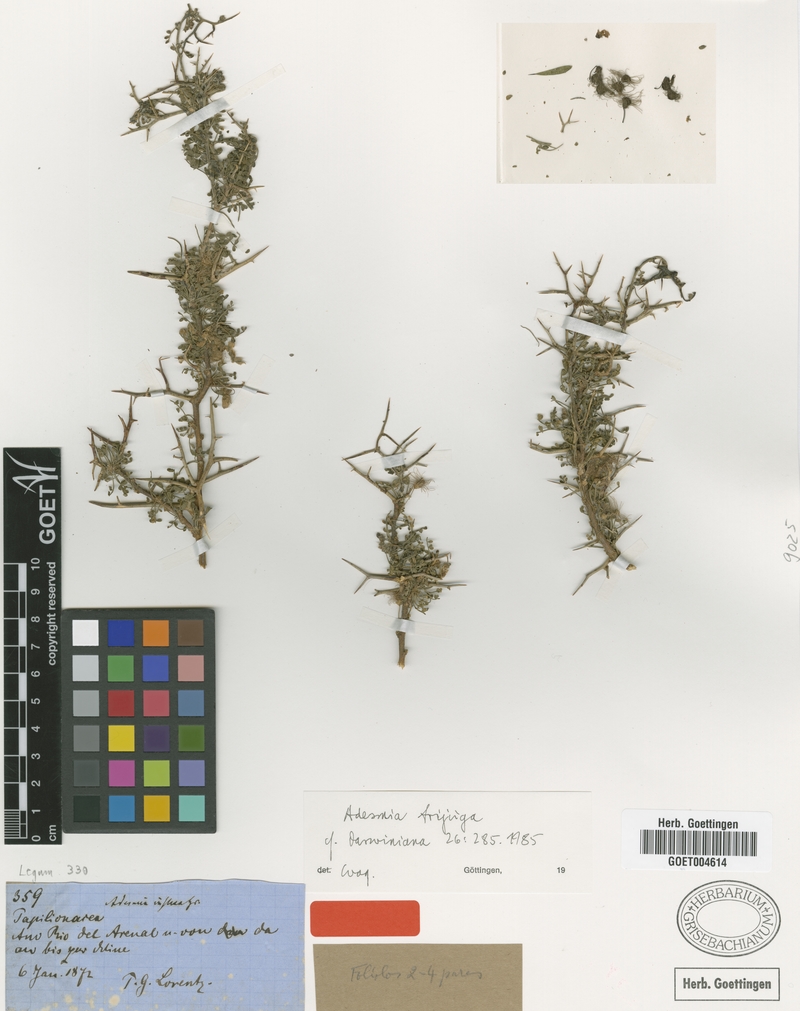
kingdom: Plantae
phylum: Tracheophyta
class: Magnoliopsida
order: Fabales
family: Fabaceae
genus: Adesmia
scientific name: Adesmia inflexa
